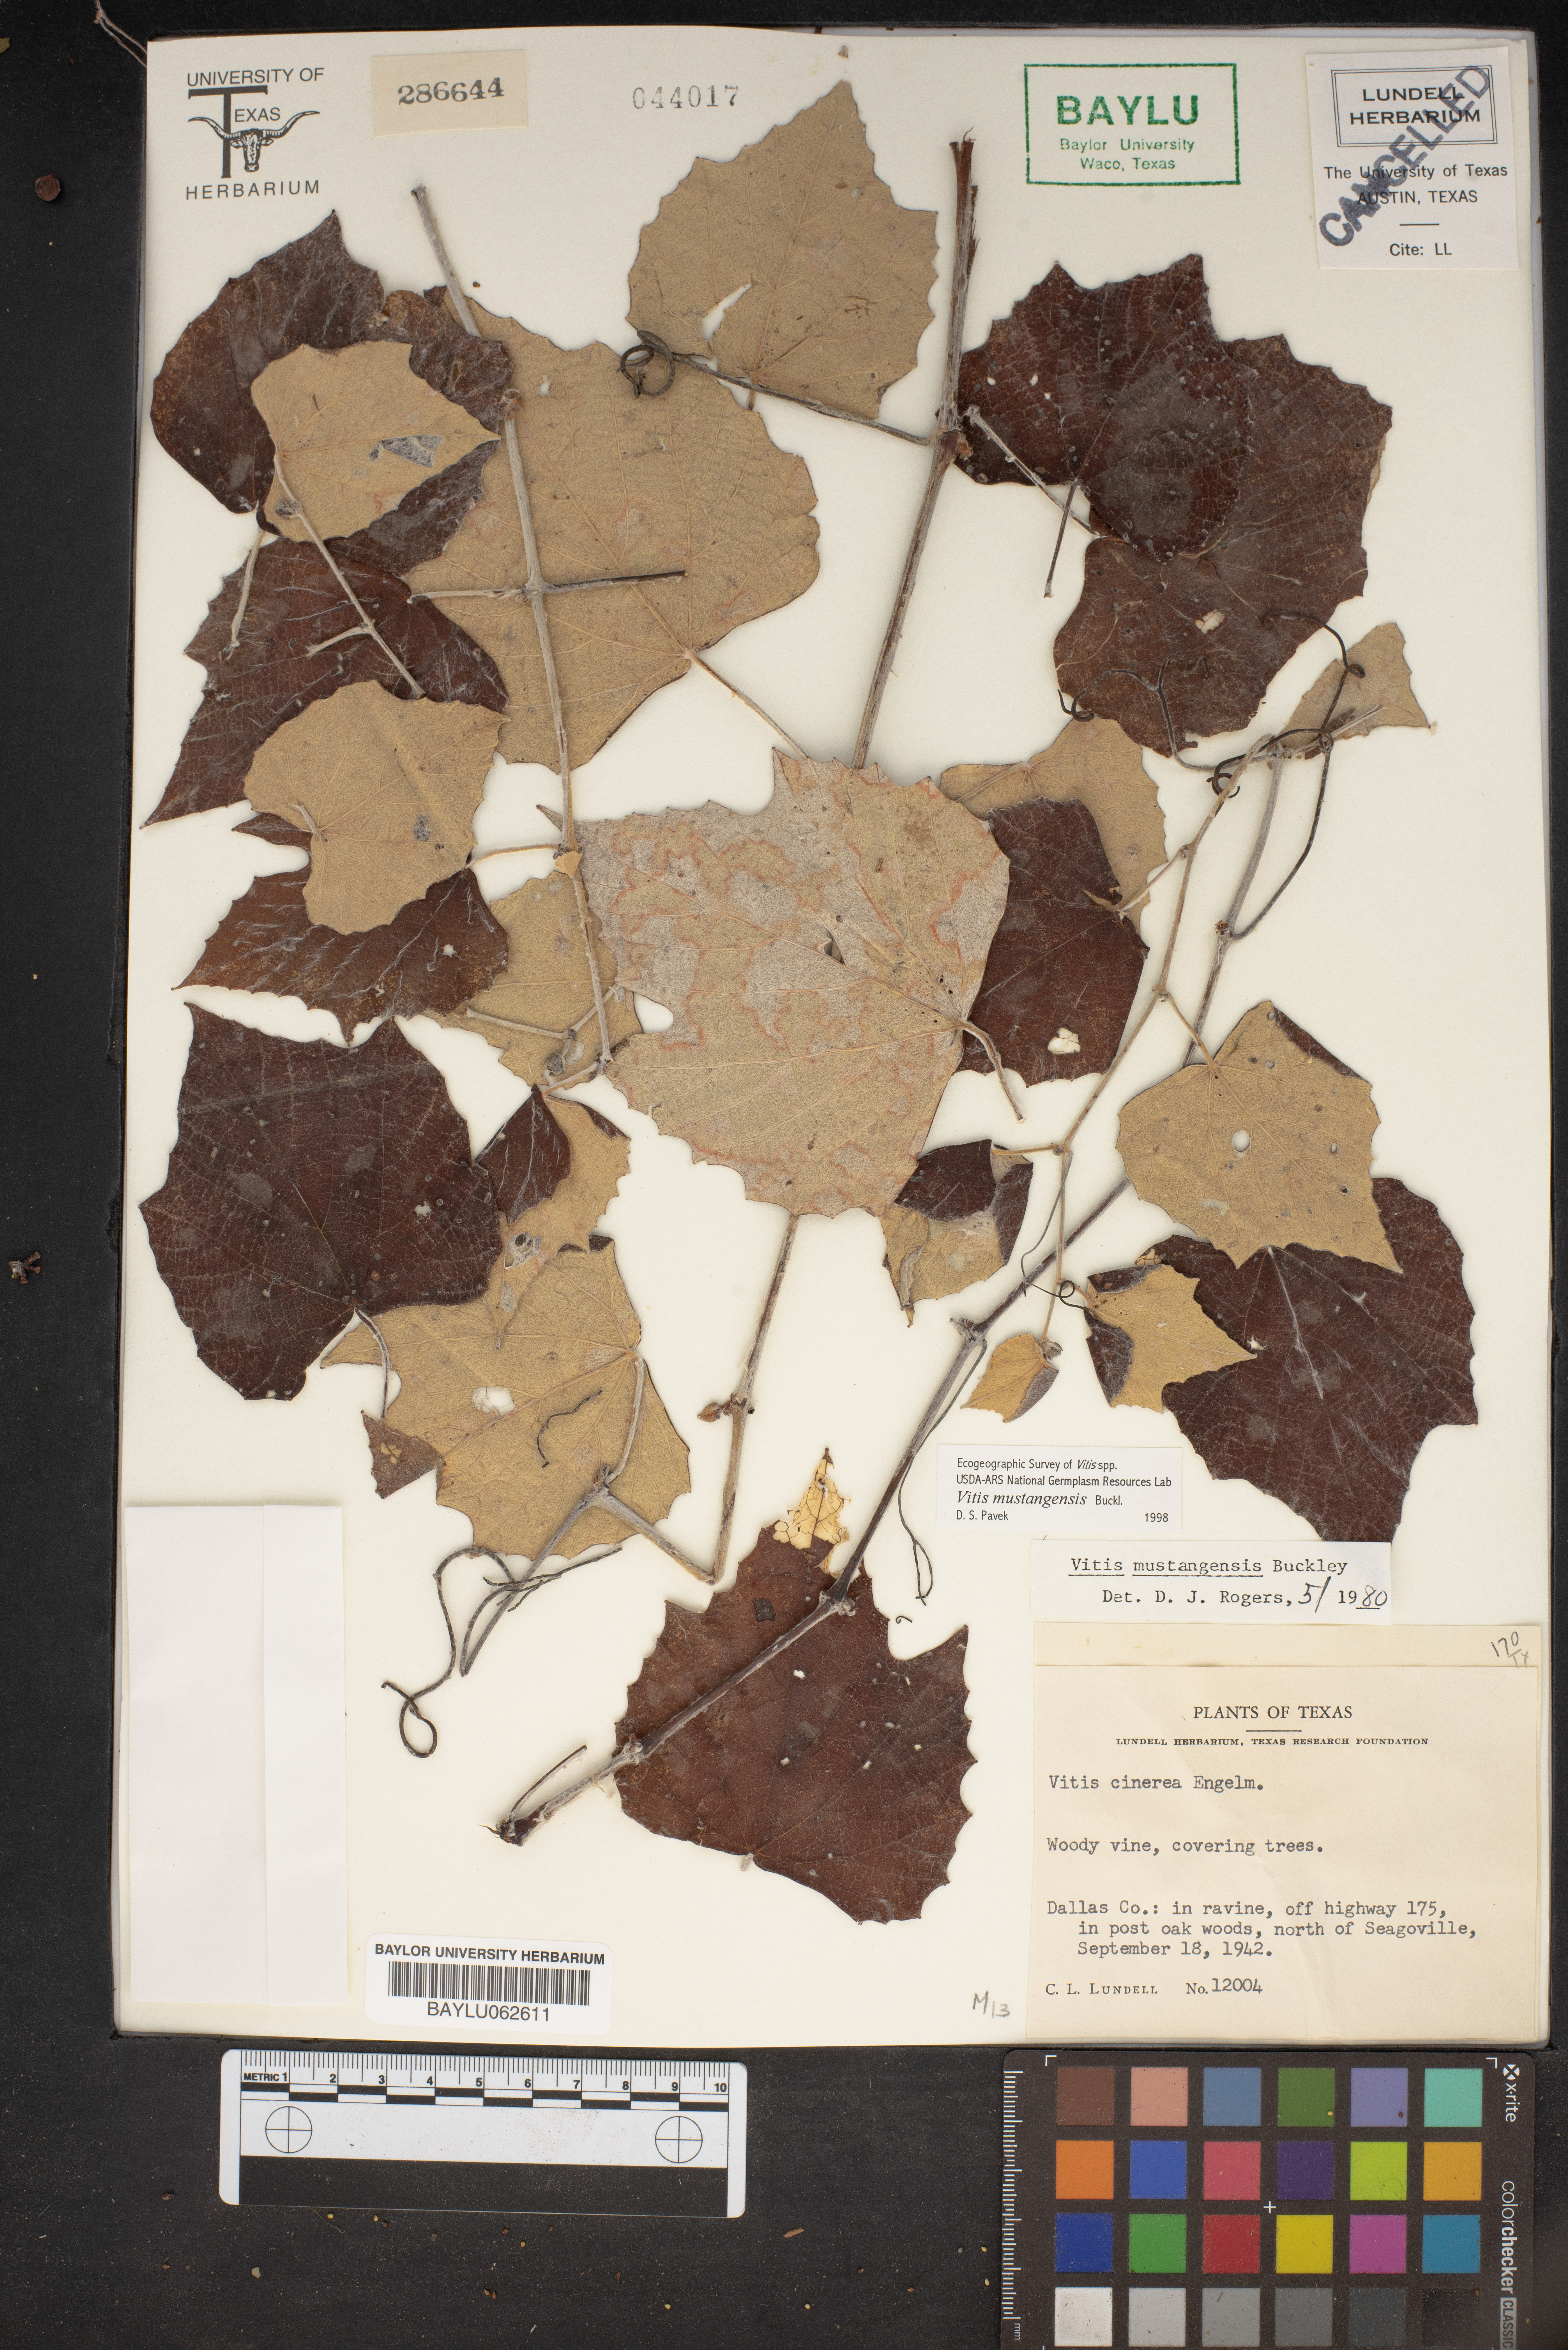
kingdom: Plantae
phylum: Tracheophyta
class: Magnoliopsida
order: Vitales
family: Vitaceae
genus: Vitis
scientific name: Vitis mustangensis
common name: Mustang grape
